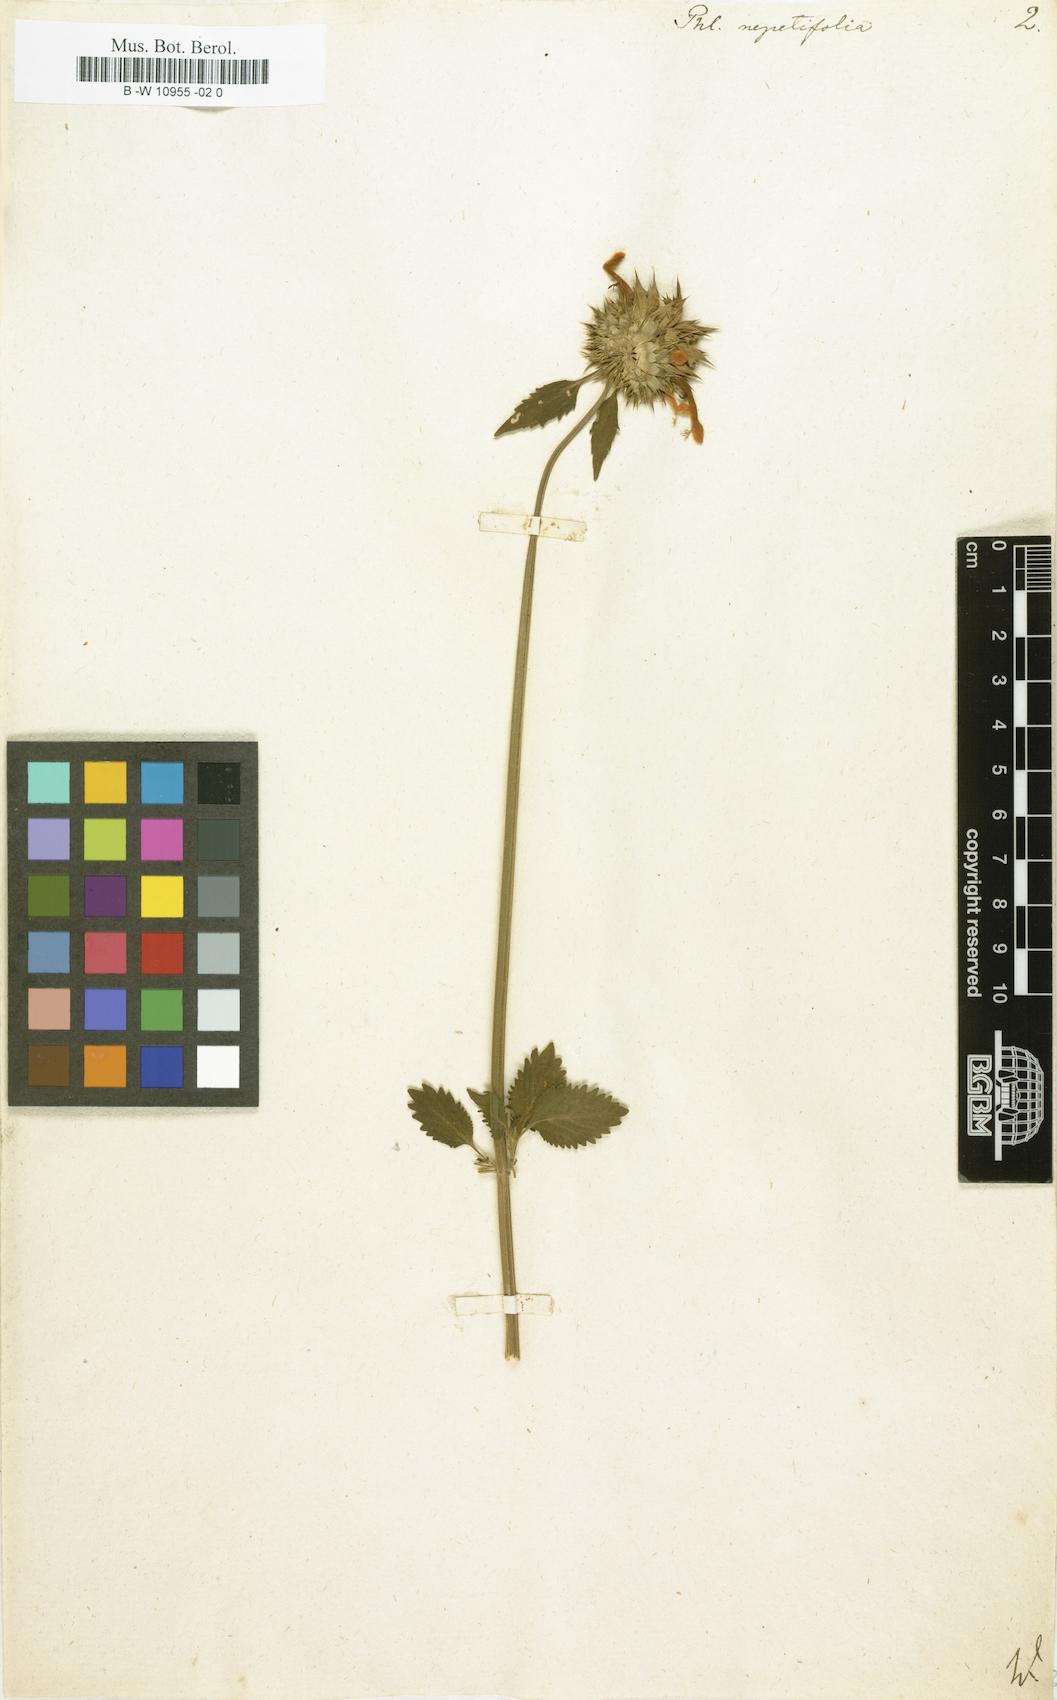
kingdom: Plantae
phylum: Tracheophyta
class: Magnoliopsida
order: Lamiales
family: Lamiaceae
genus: Leonotis
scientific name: Leonotis nepetifolia
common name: Christmas candlestick
